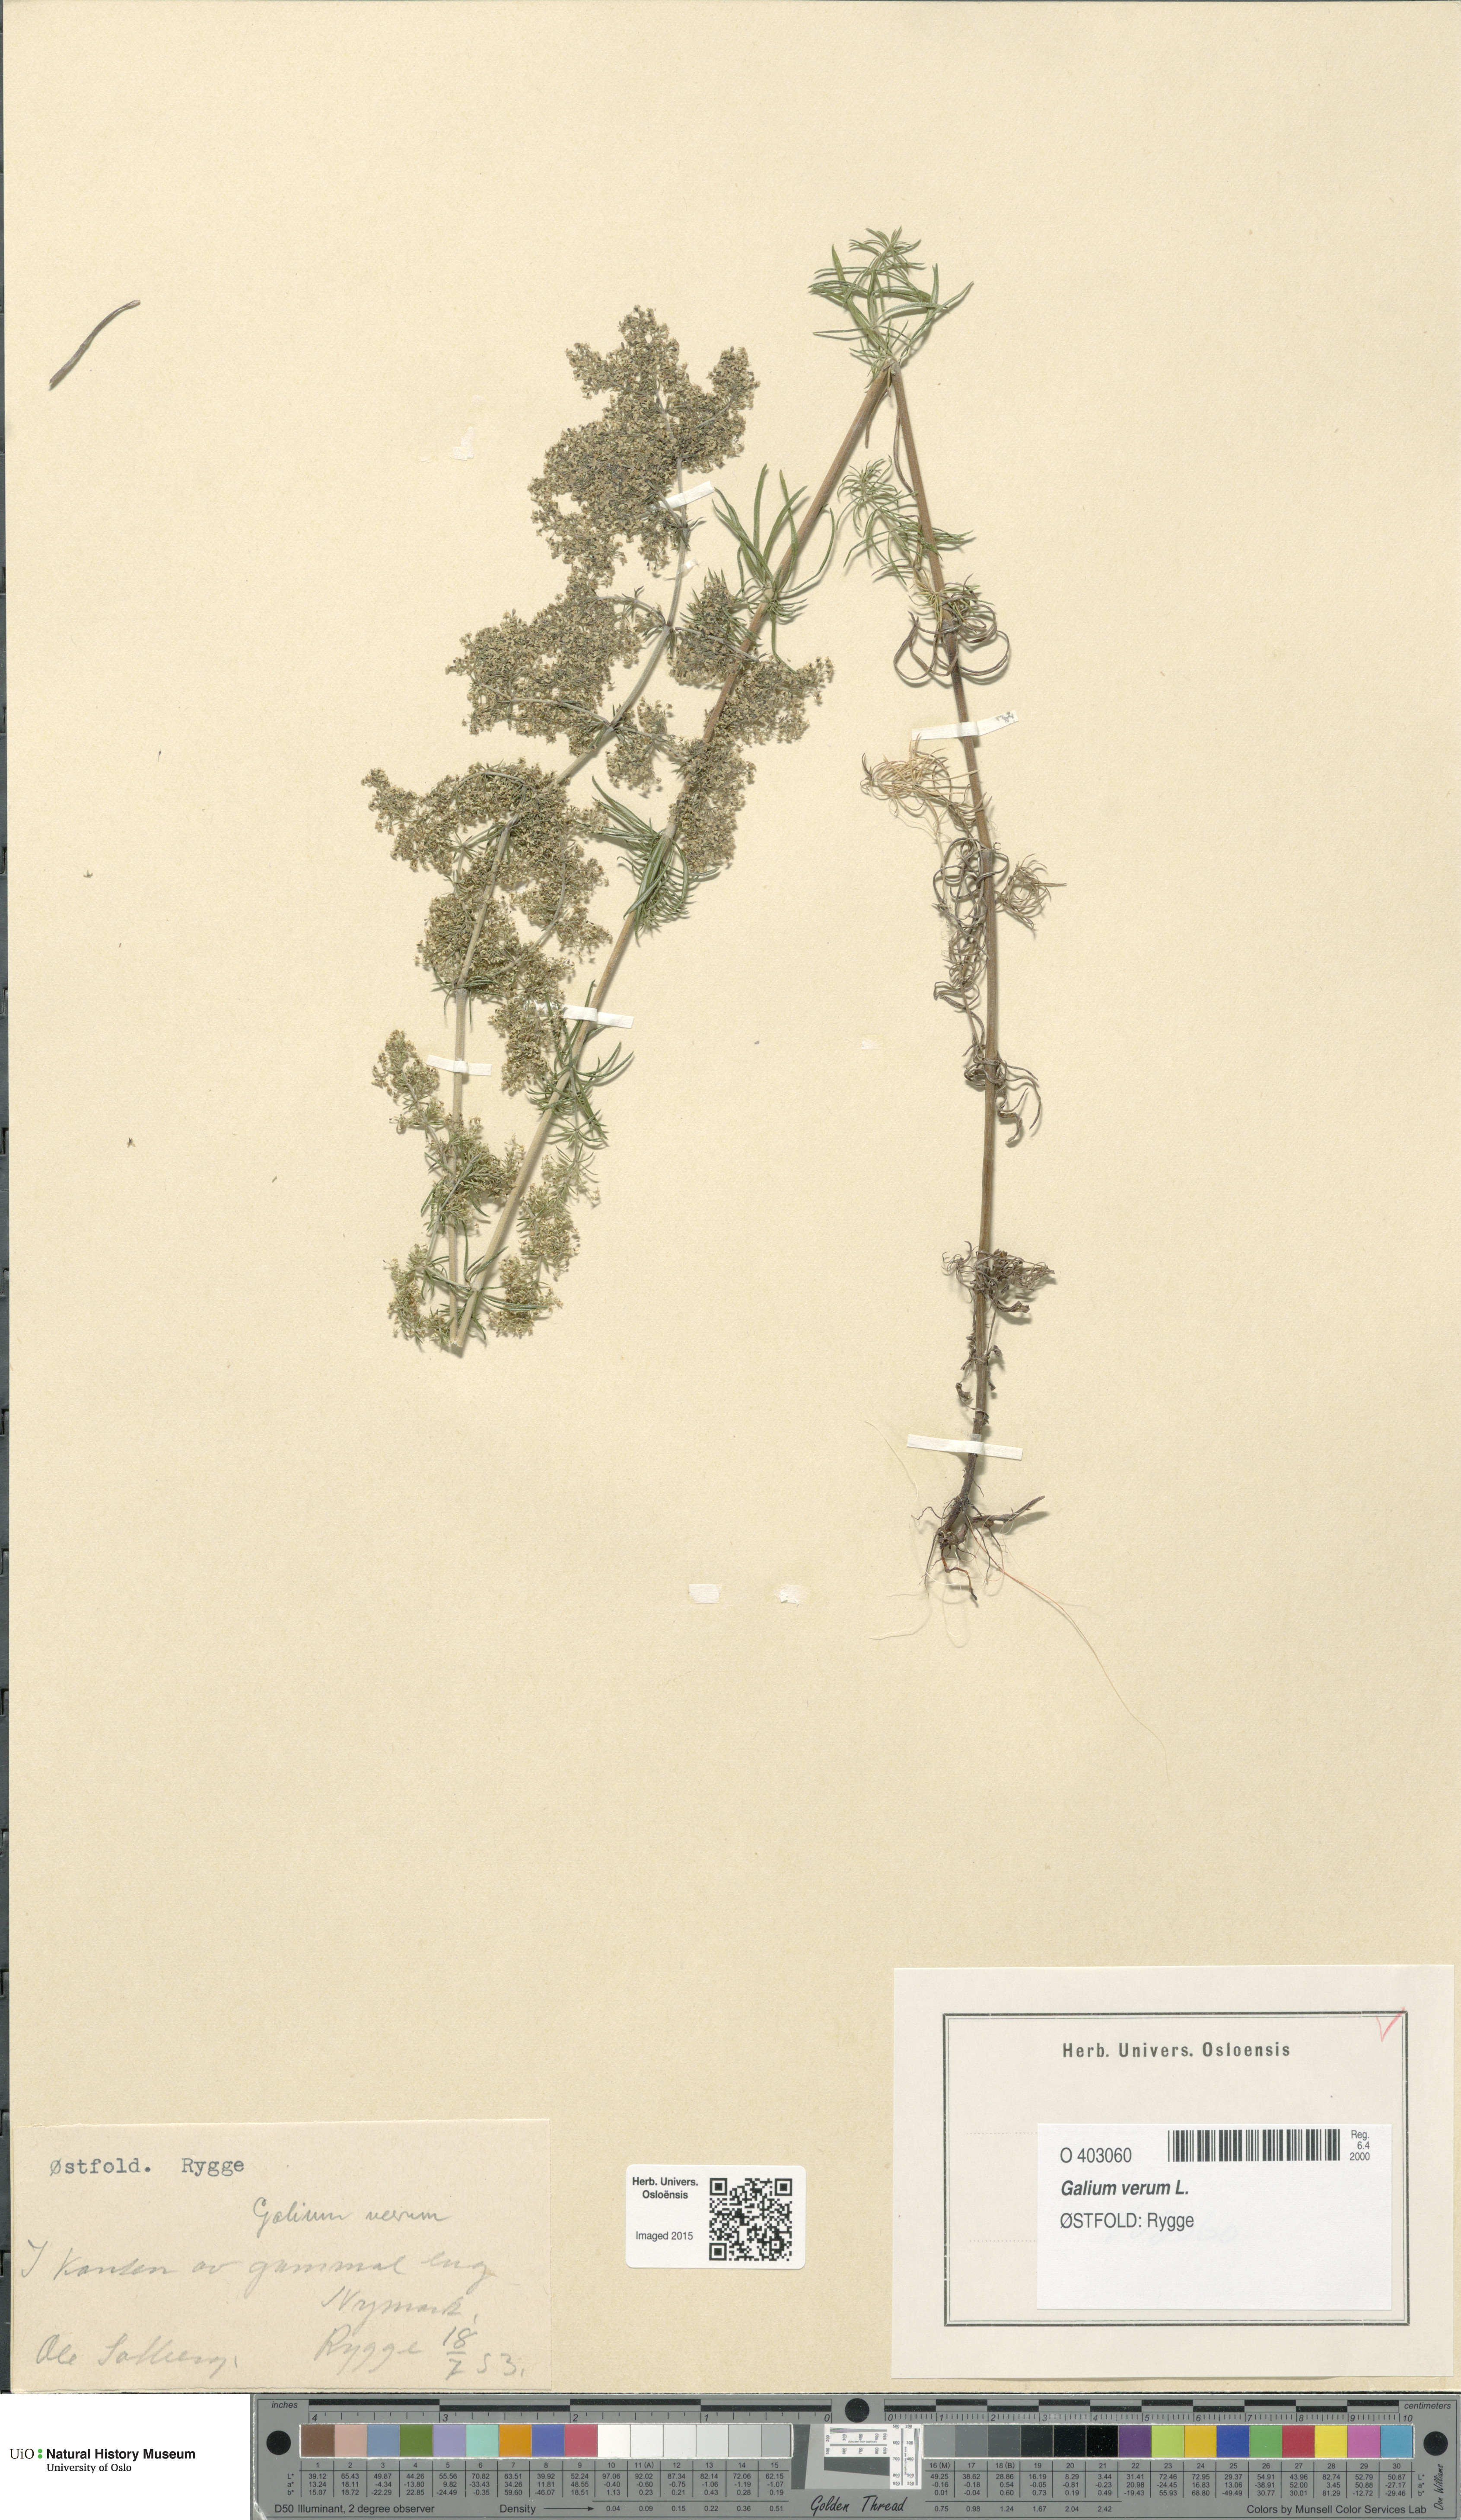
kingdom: Plantae
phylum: Tracheophyta
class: Magnoliopsida
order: Gentianales
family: Rubiaceae
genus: Galium
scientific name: Galium verum
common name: Lady's bedstraw
